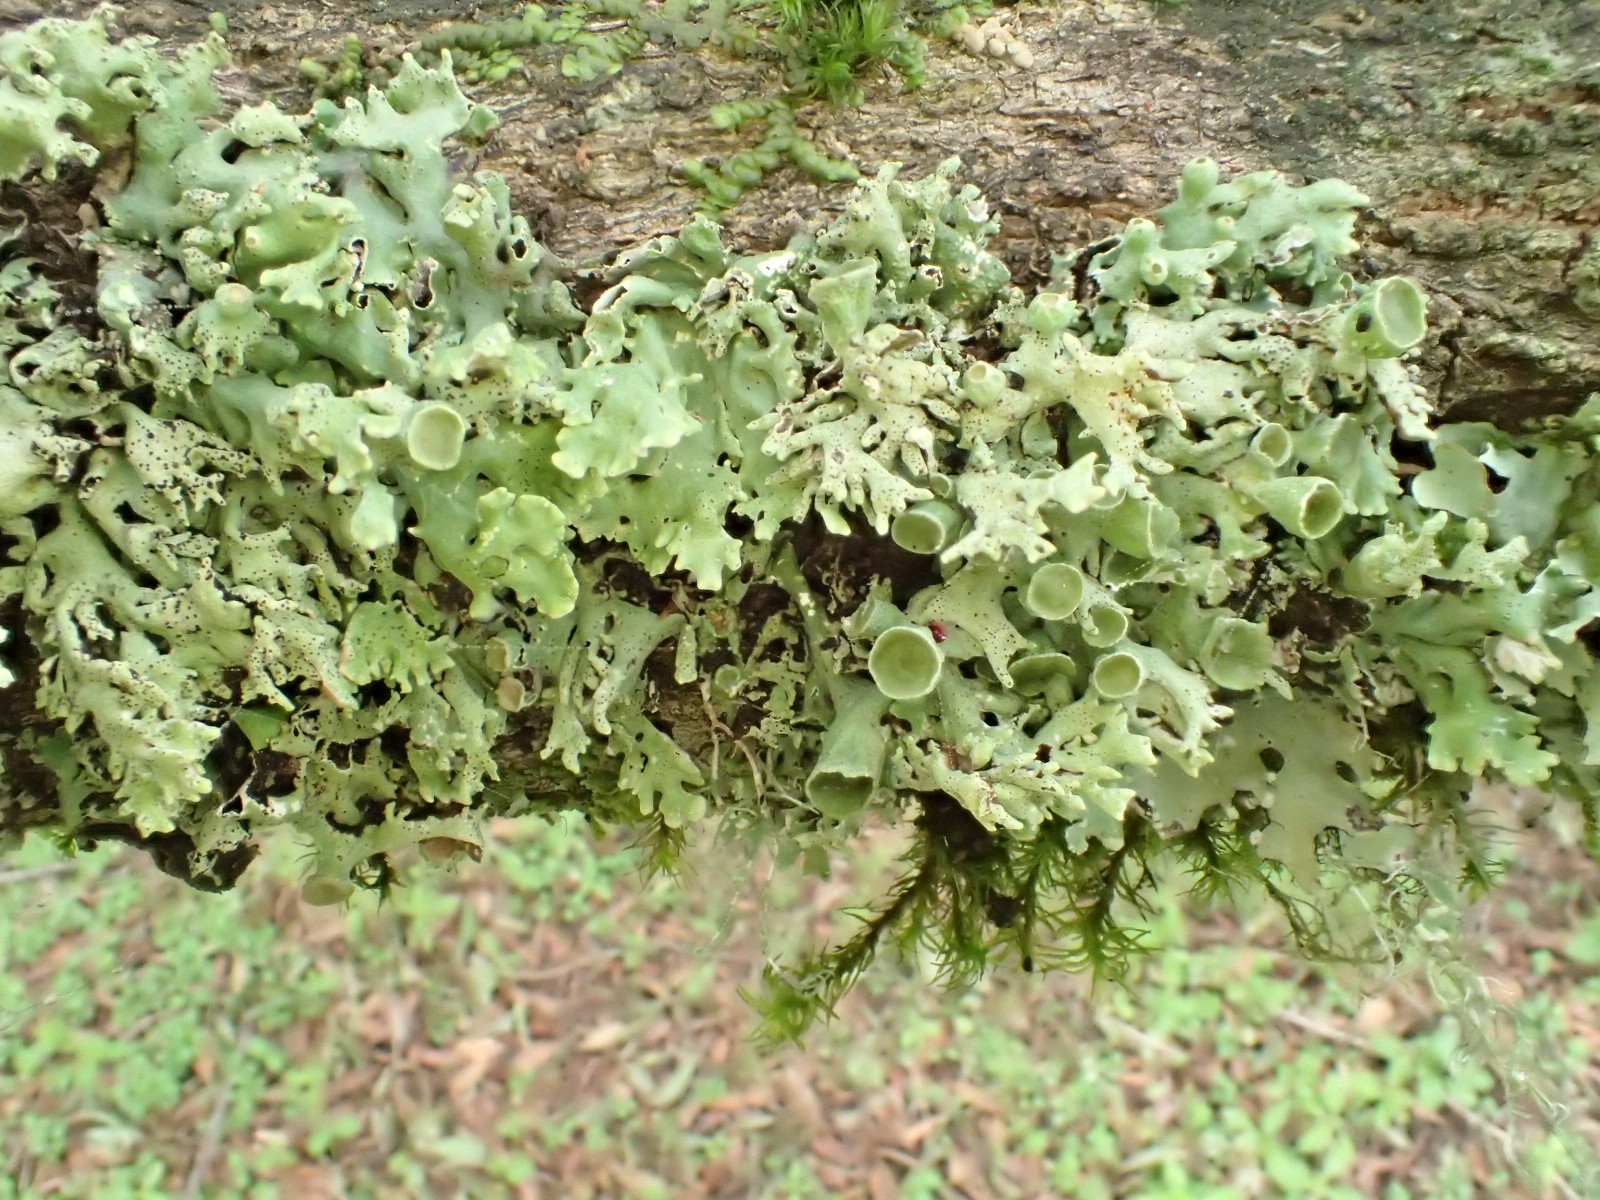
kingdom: Fungi
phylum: Ascomycota
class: Lecanoromycetes
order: Lecanorales
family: Parmeliaceae
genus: Hypogymnia
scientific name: Hypogymnia physodes
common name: almindelig kvistlav
